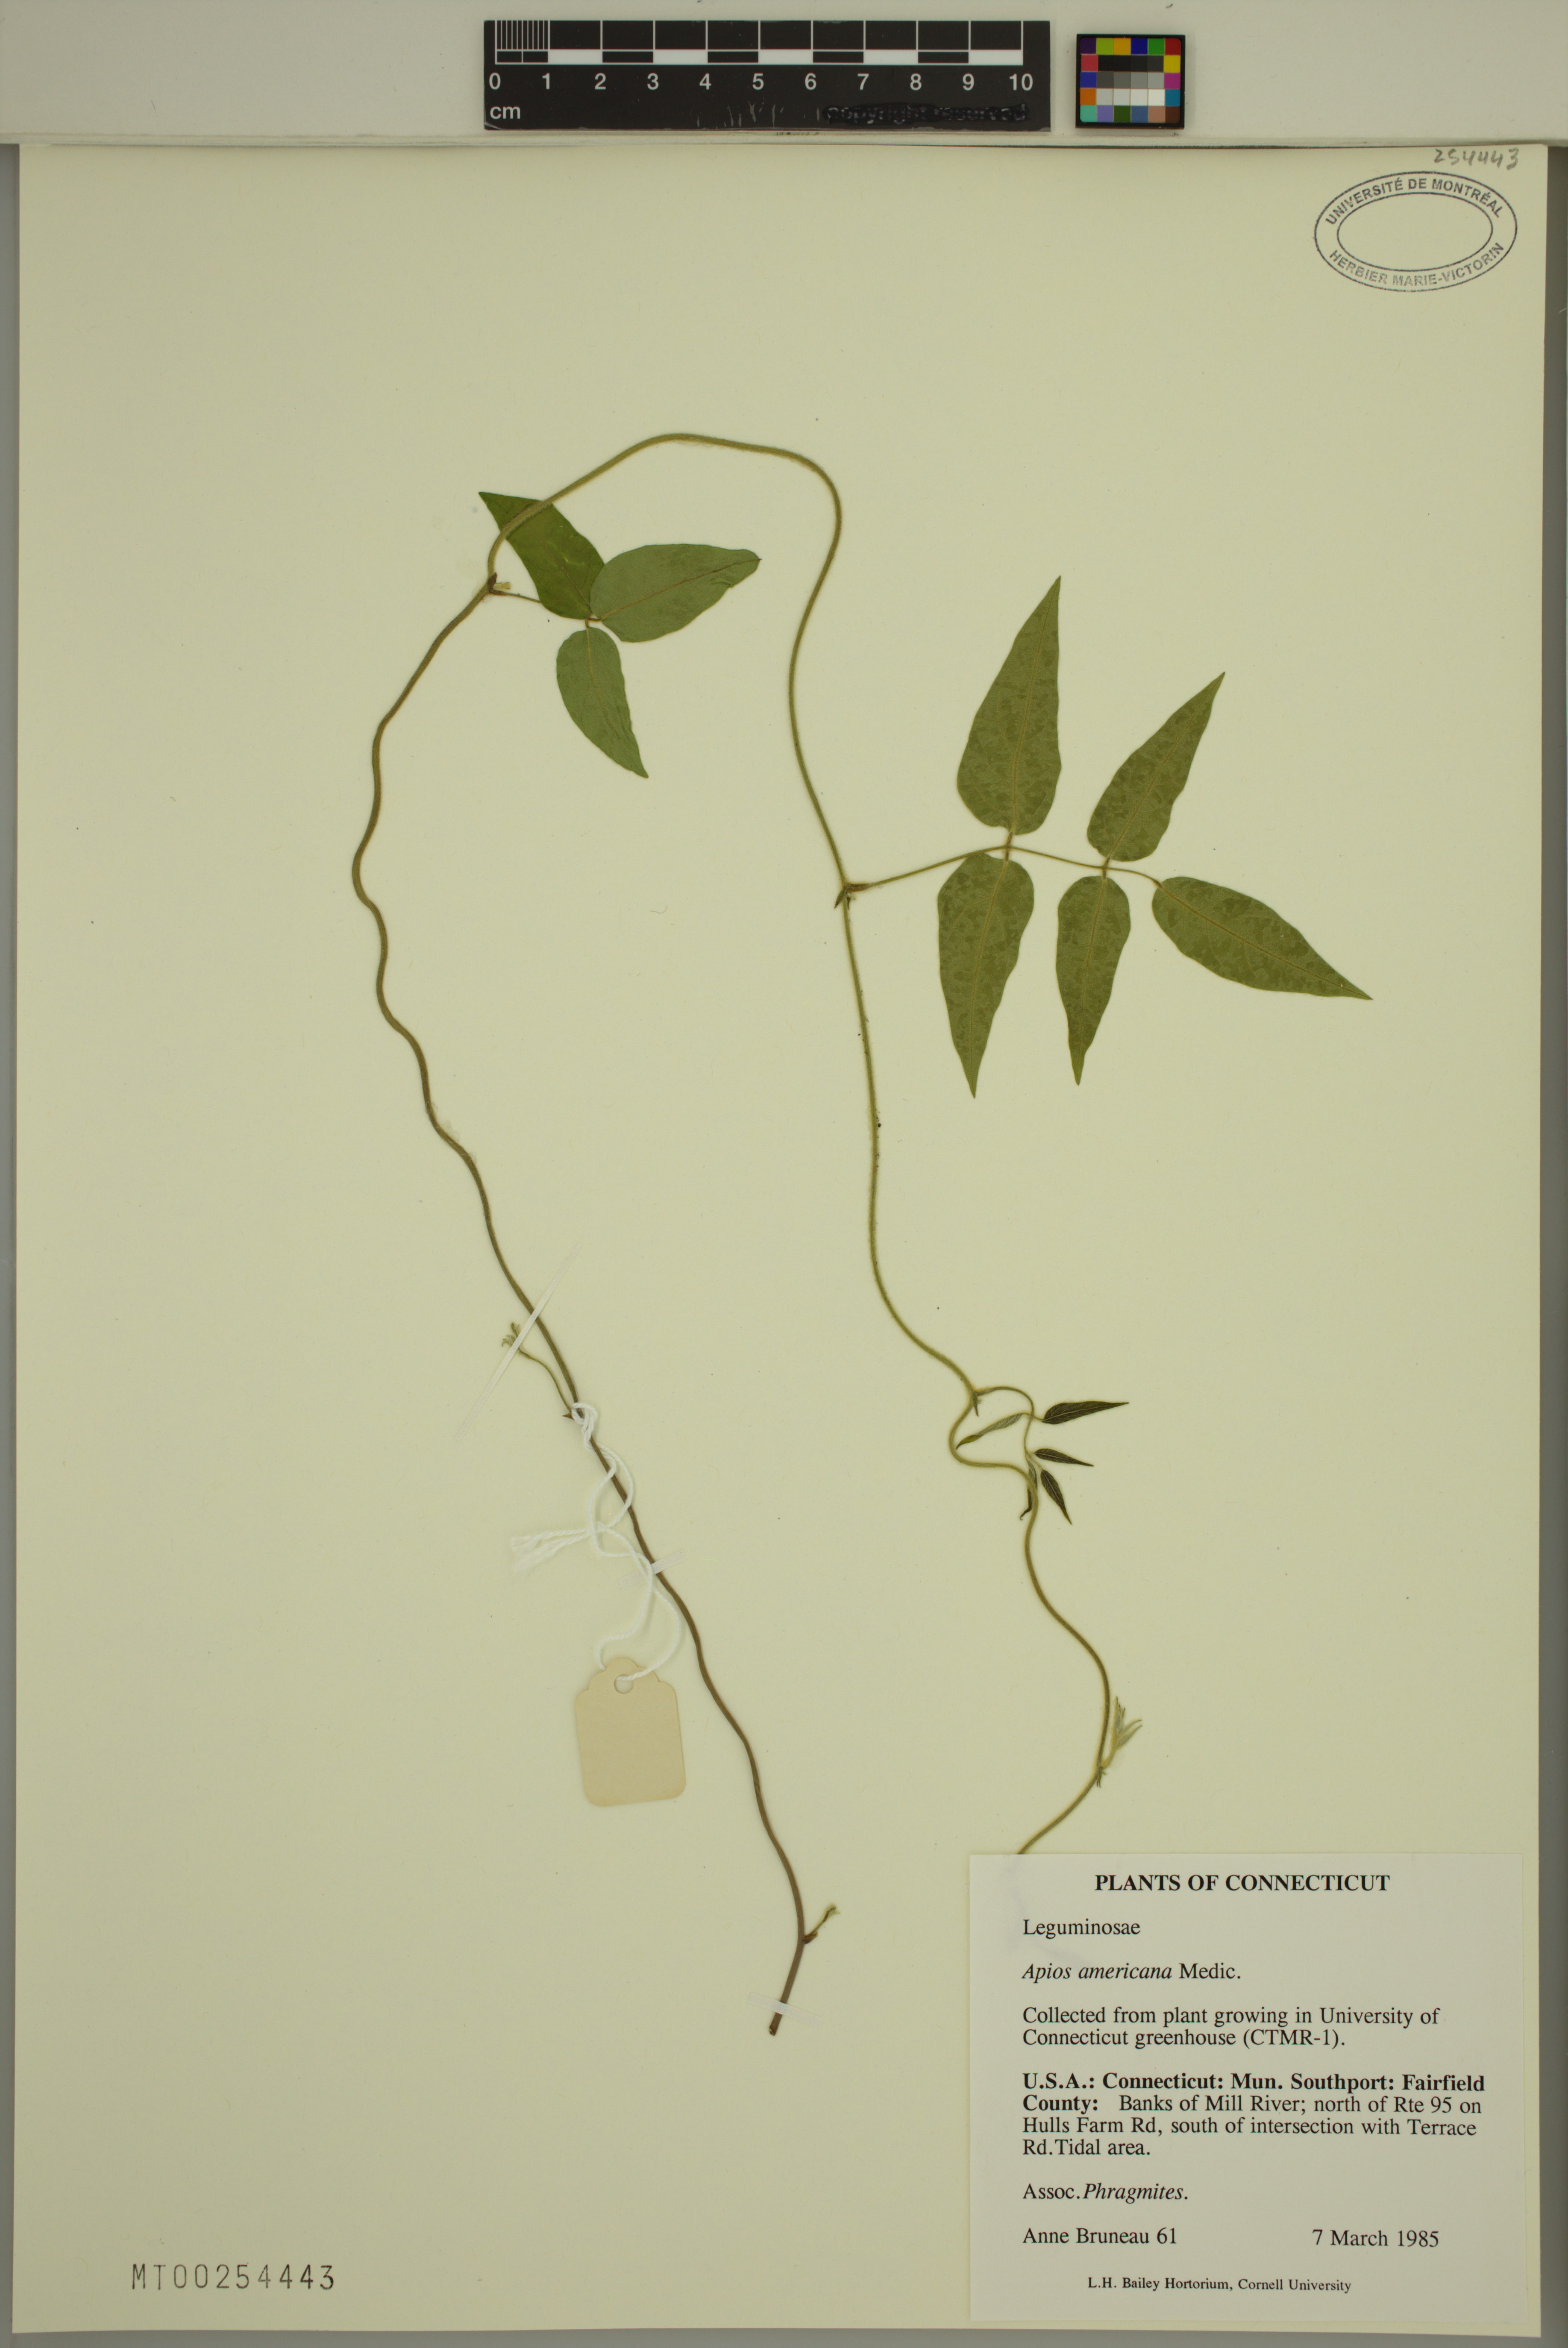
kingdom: Plantae
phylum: Tracheophyta
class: Magnoliopsida
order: Fabales
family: Fabaceae
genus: Apios
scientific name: Apios americana
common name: American potato-bean
